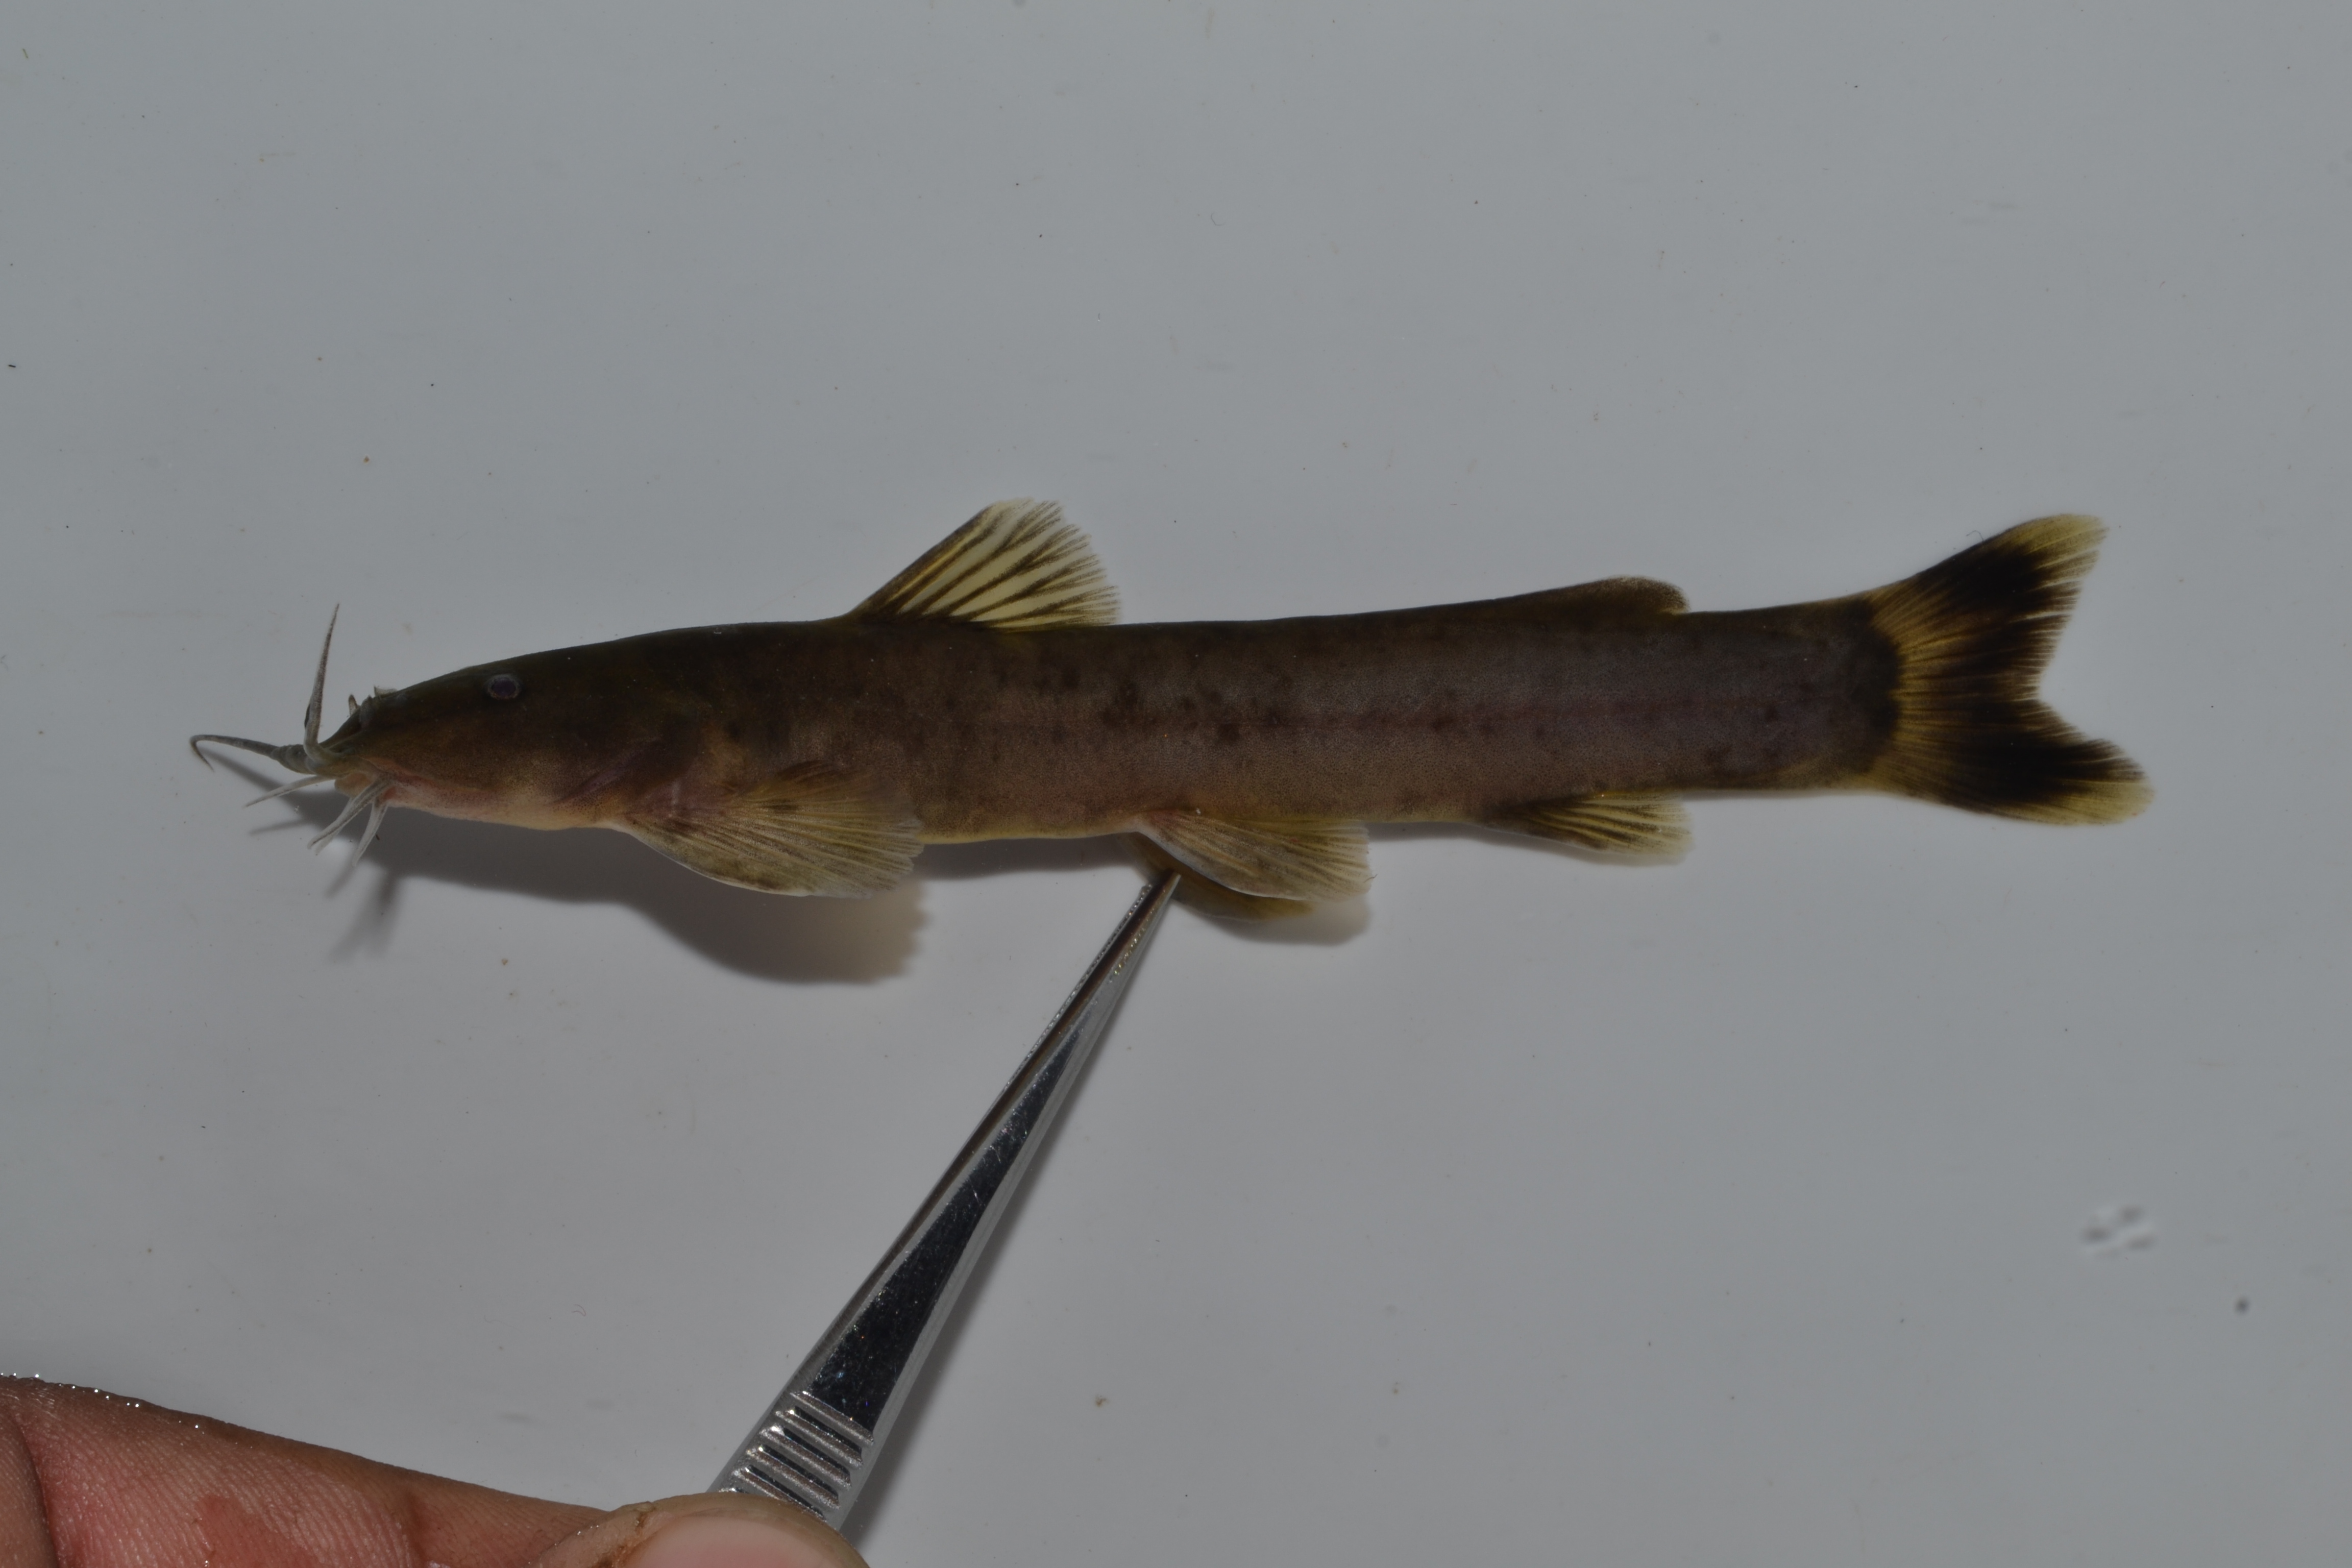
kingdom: Animalia
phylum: Chordata
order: Siluriformes
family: Amphiliidae
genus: Amphilius
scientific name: Amphilius natalensis
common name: Natal mountain catfish
